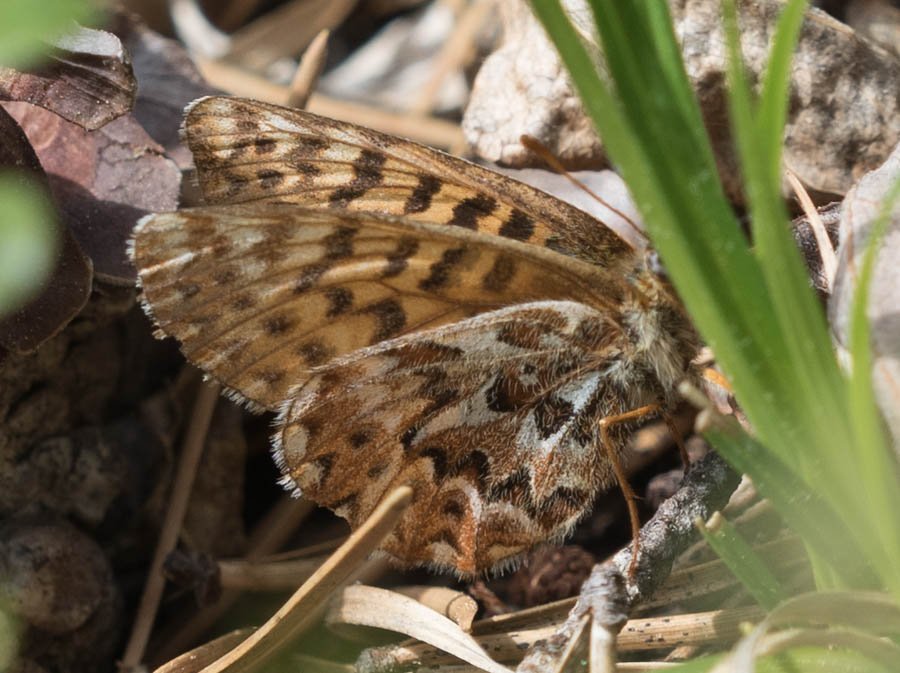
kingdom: Animalia
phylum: Arthropoda
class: Insecta
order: Lepidoptera
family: Nymphalidae
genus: Boloria
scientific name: Boloria freija
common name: Freija Fritillary
